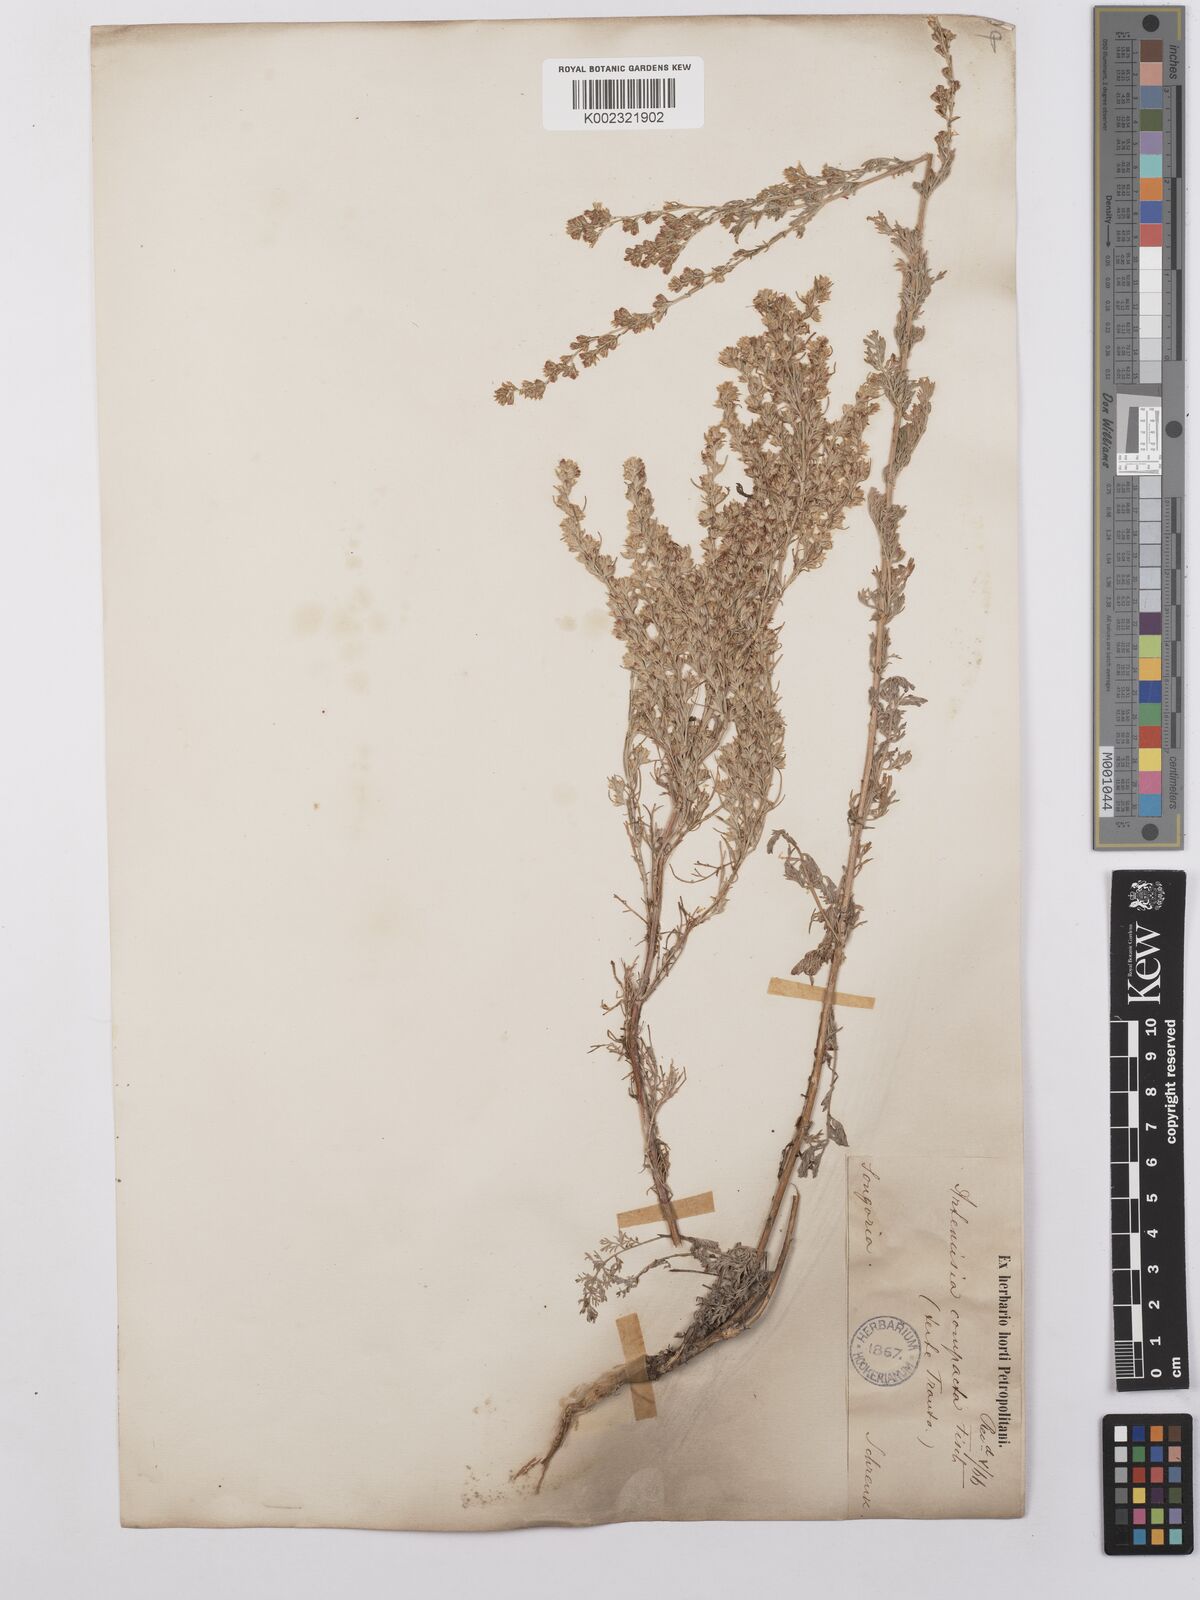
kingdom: Plantae
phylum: Tracheophyta
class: Magnoliopsida
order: Asterales
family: Asteraceae
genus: Artemisia
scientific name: Artemisia compacta
